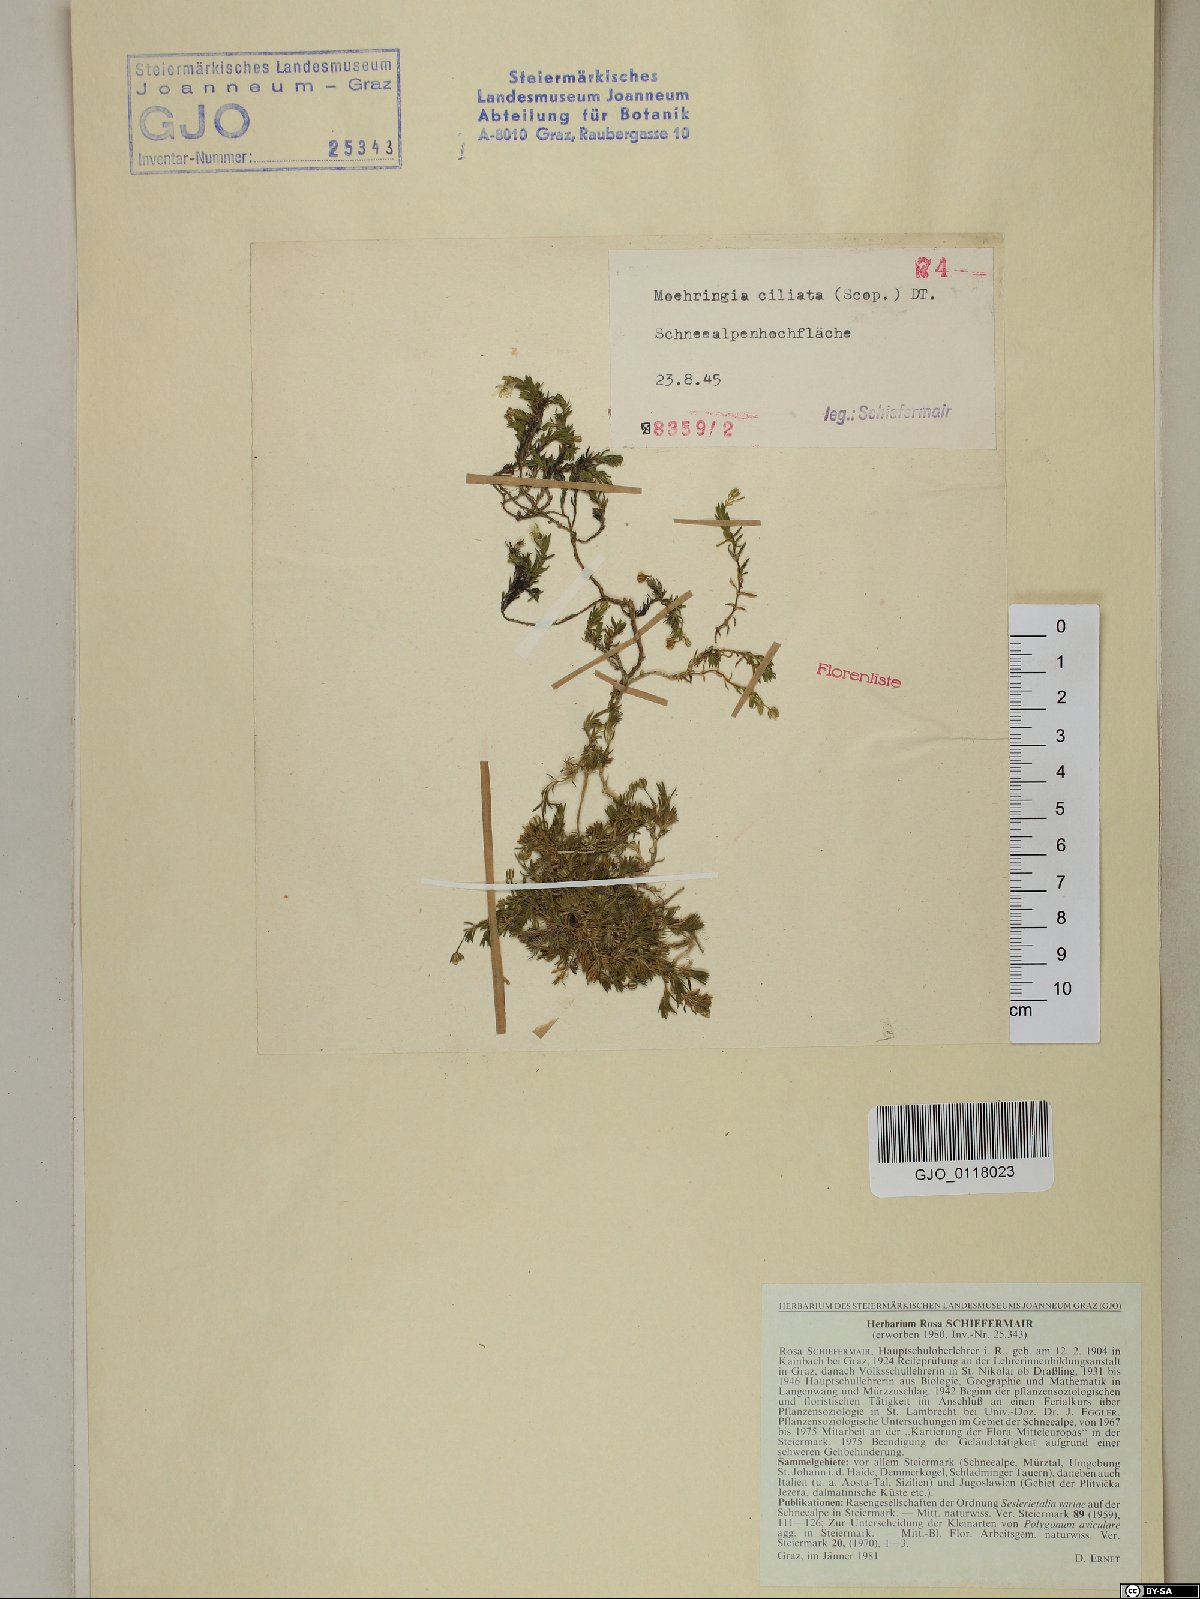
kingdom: Plantae
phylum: Tracheophyta
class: Magnoliopsida
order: Caryophyllales
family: Caryophyllaceae
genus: Moehringia
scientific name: Moehringia ciliata
